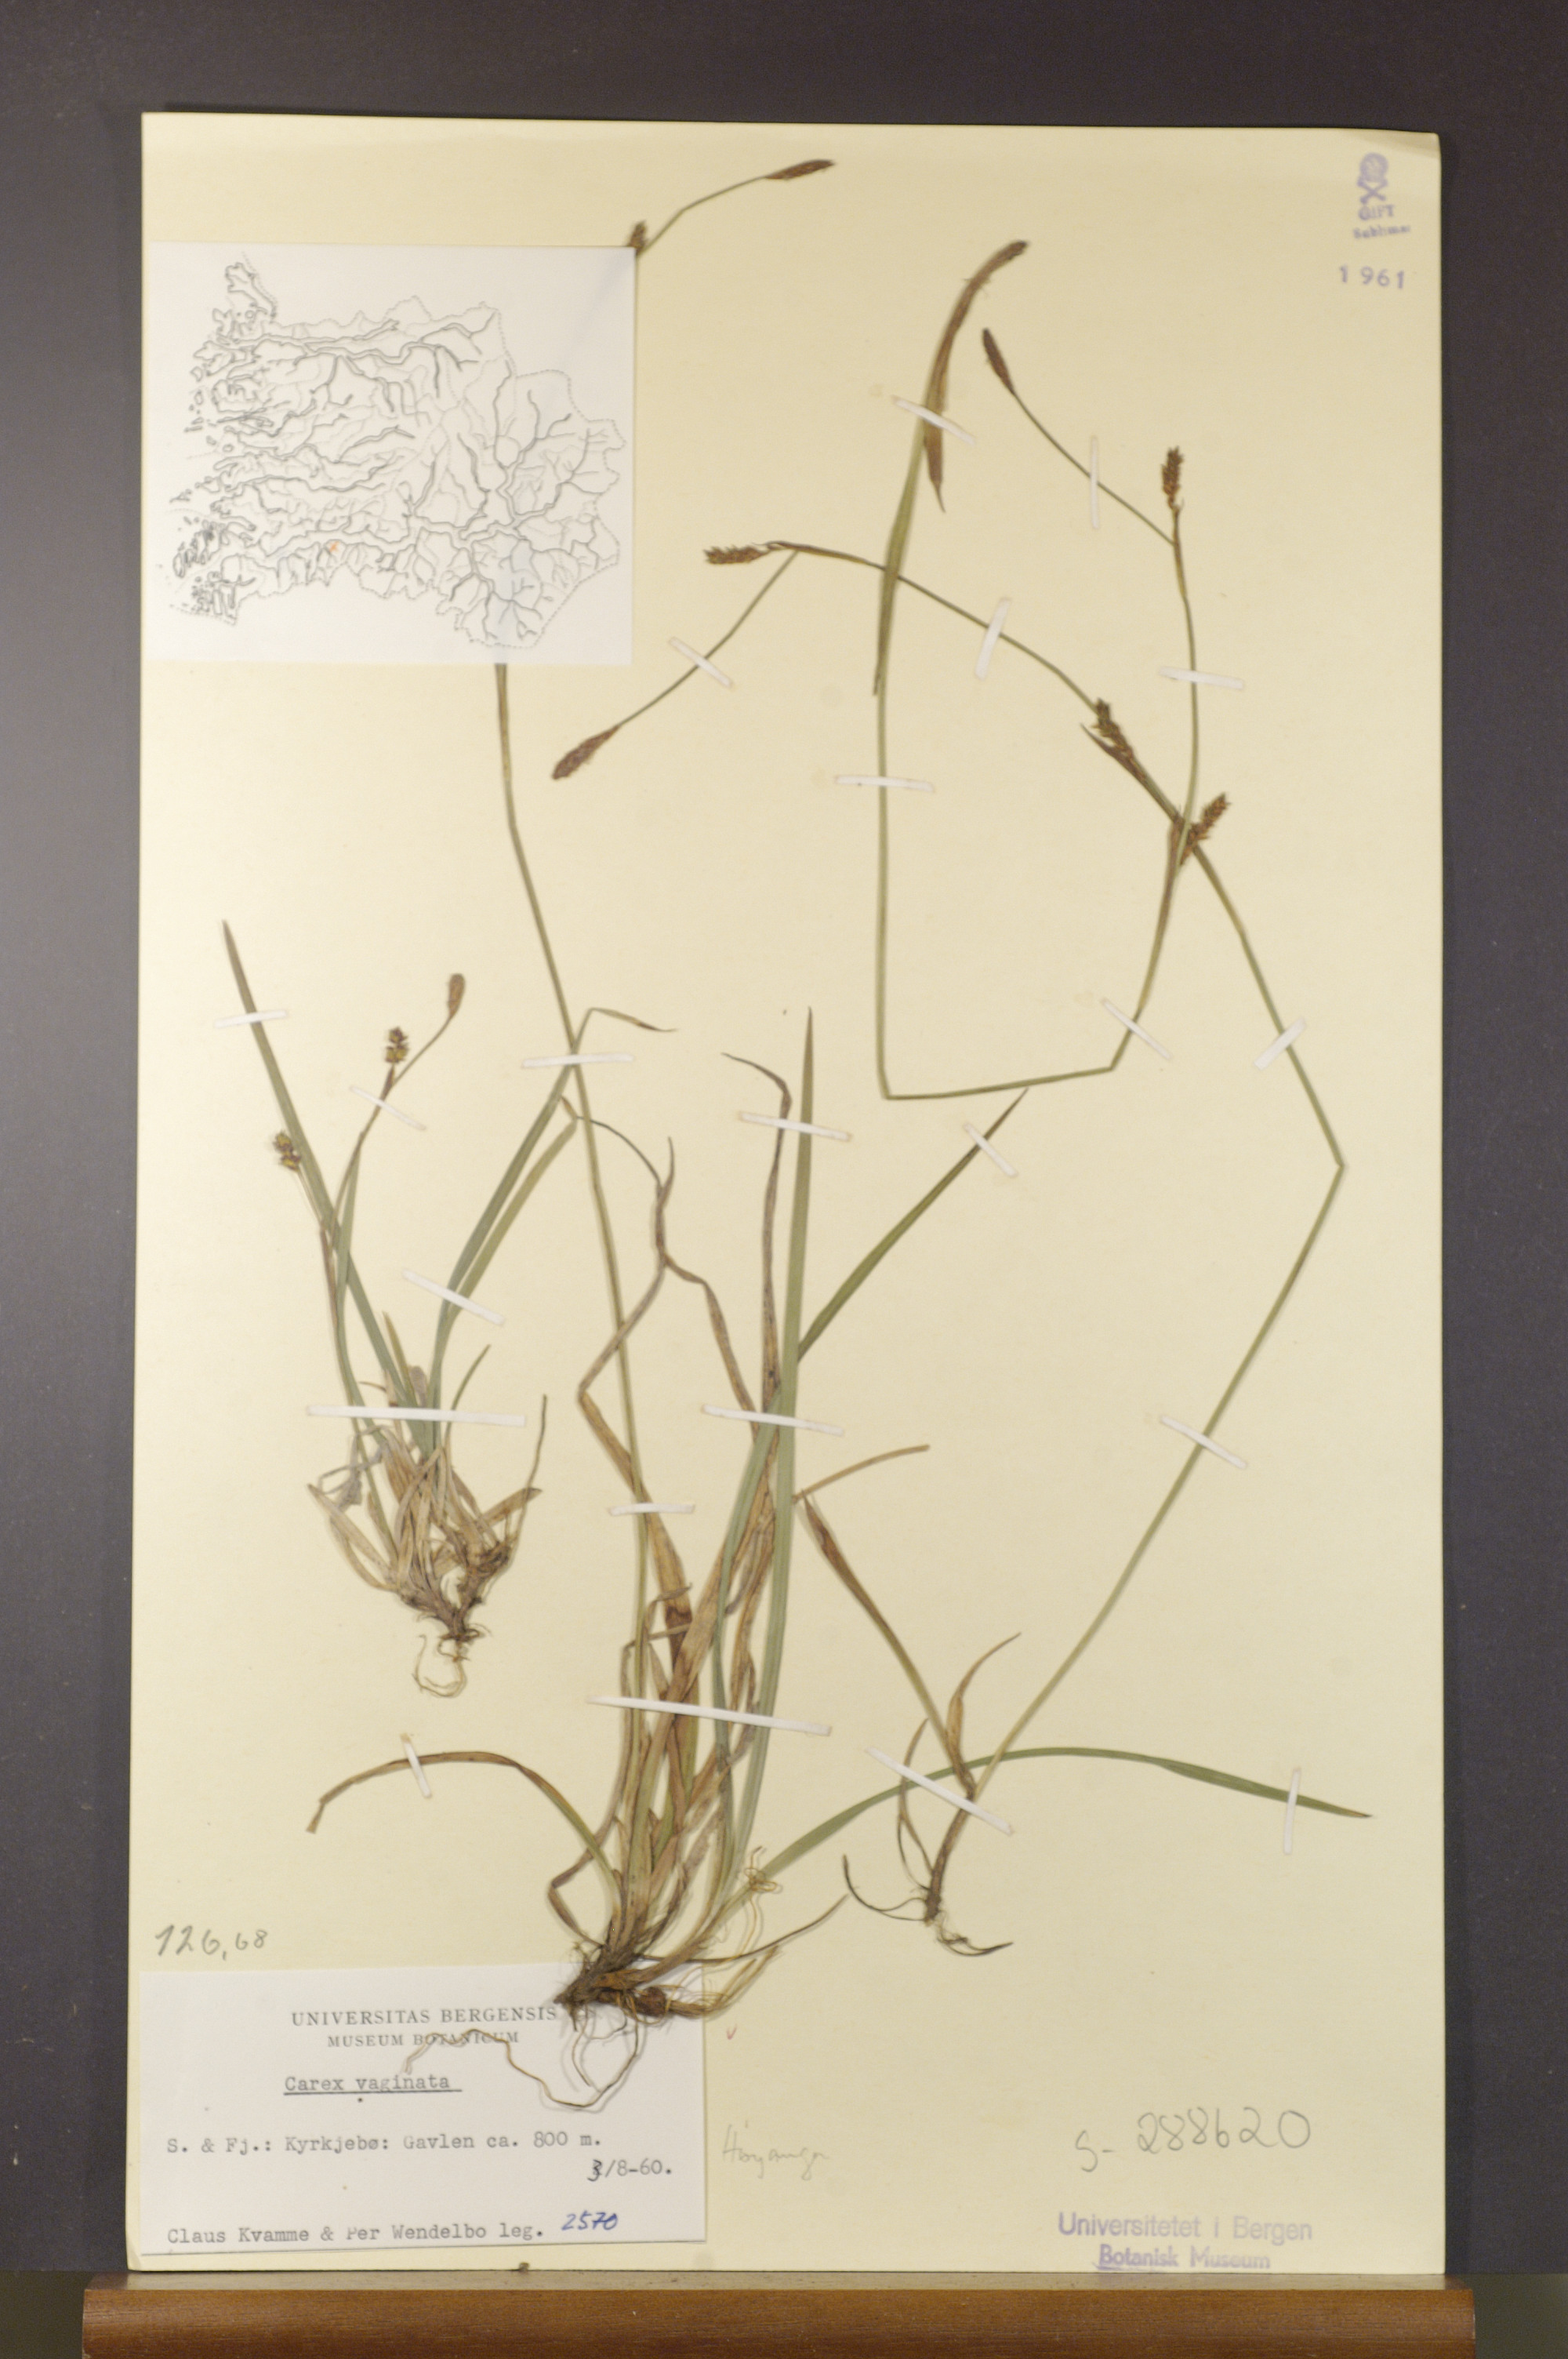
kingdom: Plantae
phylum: Tracheophyta
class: Liliopsida
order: Poales
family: Cyperaceae
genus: Carex
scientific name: Carex vaginata
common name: Sheathed sedge
